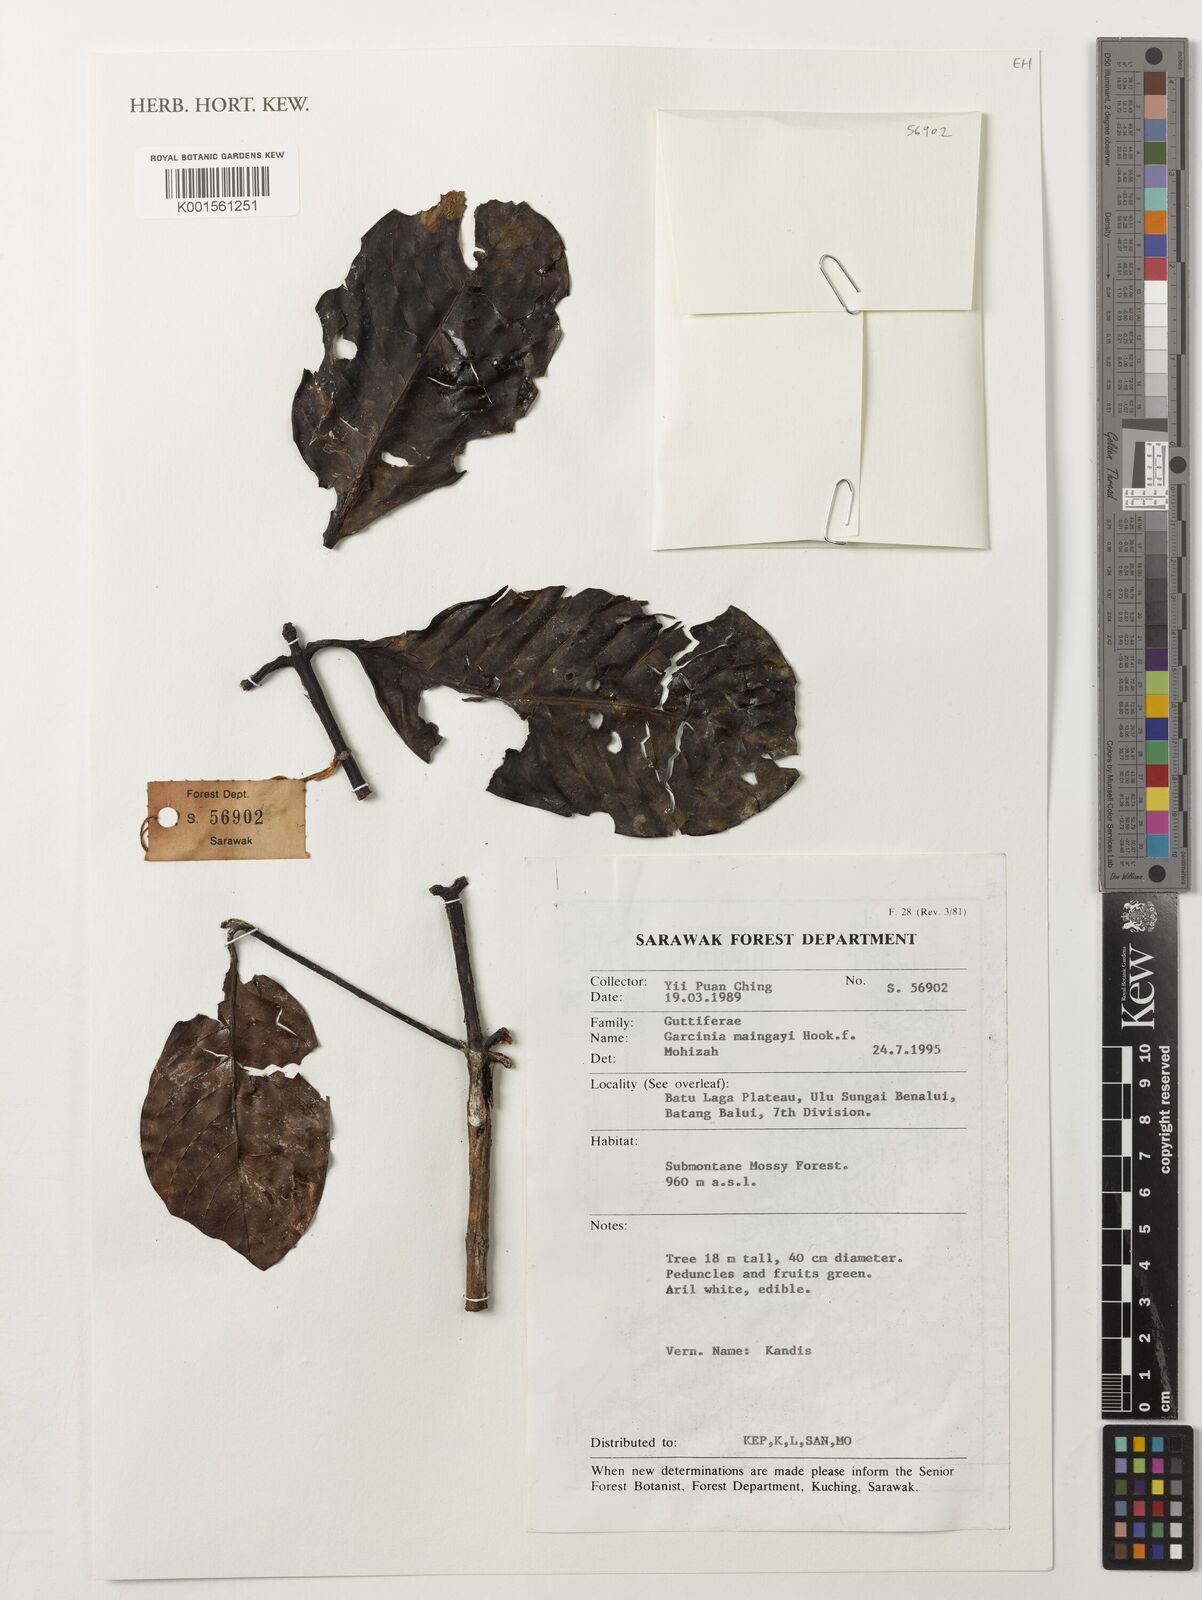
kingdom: Plantae
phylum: Tracheophyta
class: Magnoliopsida
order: Malpighiales
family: Clusiaceae
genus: Garcinia
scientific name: Garcinia maingayi
